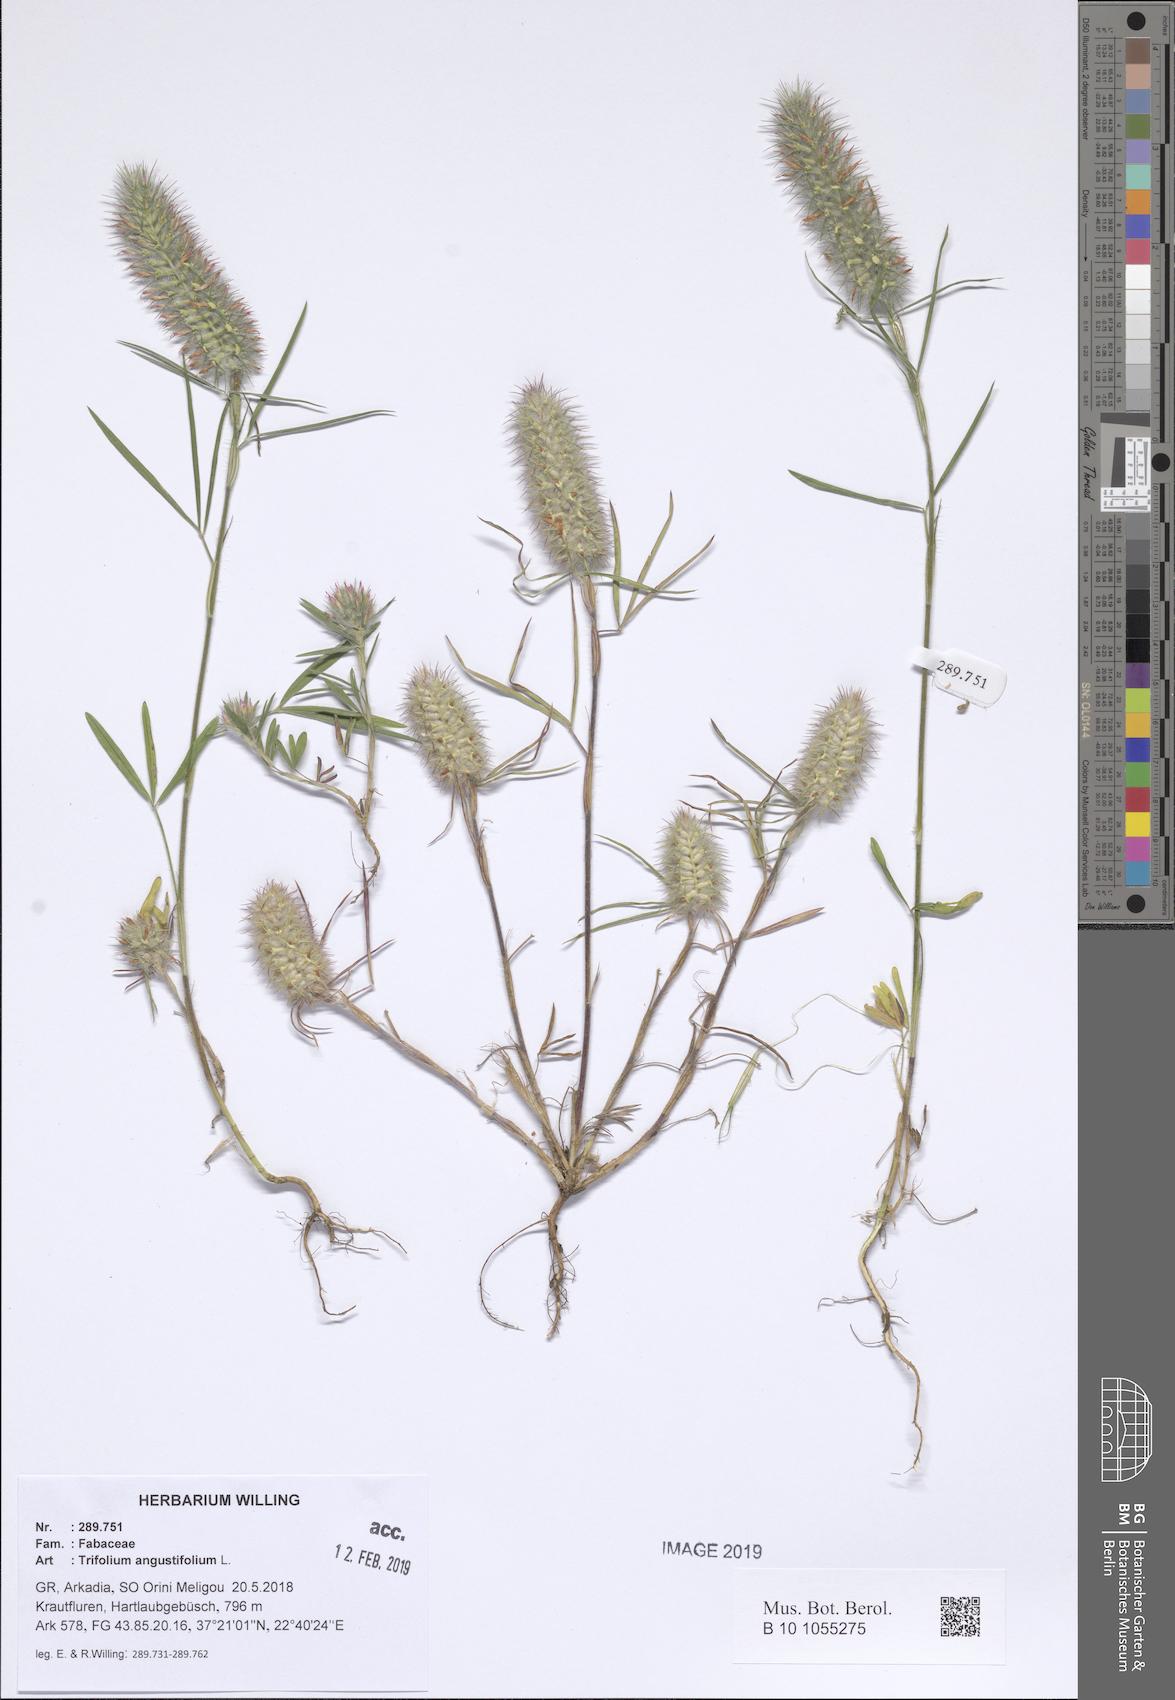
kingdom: Plantae
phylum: Tracheophyta
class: Magnoliopsida
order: Fabales
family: Fabaceae
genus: Trifolium
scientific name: Trifolium angustifolium
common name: Narrow clover
